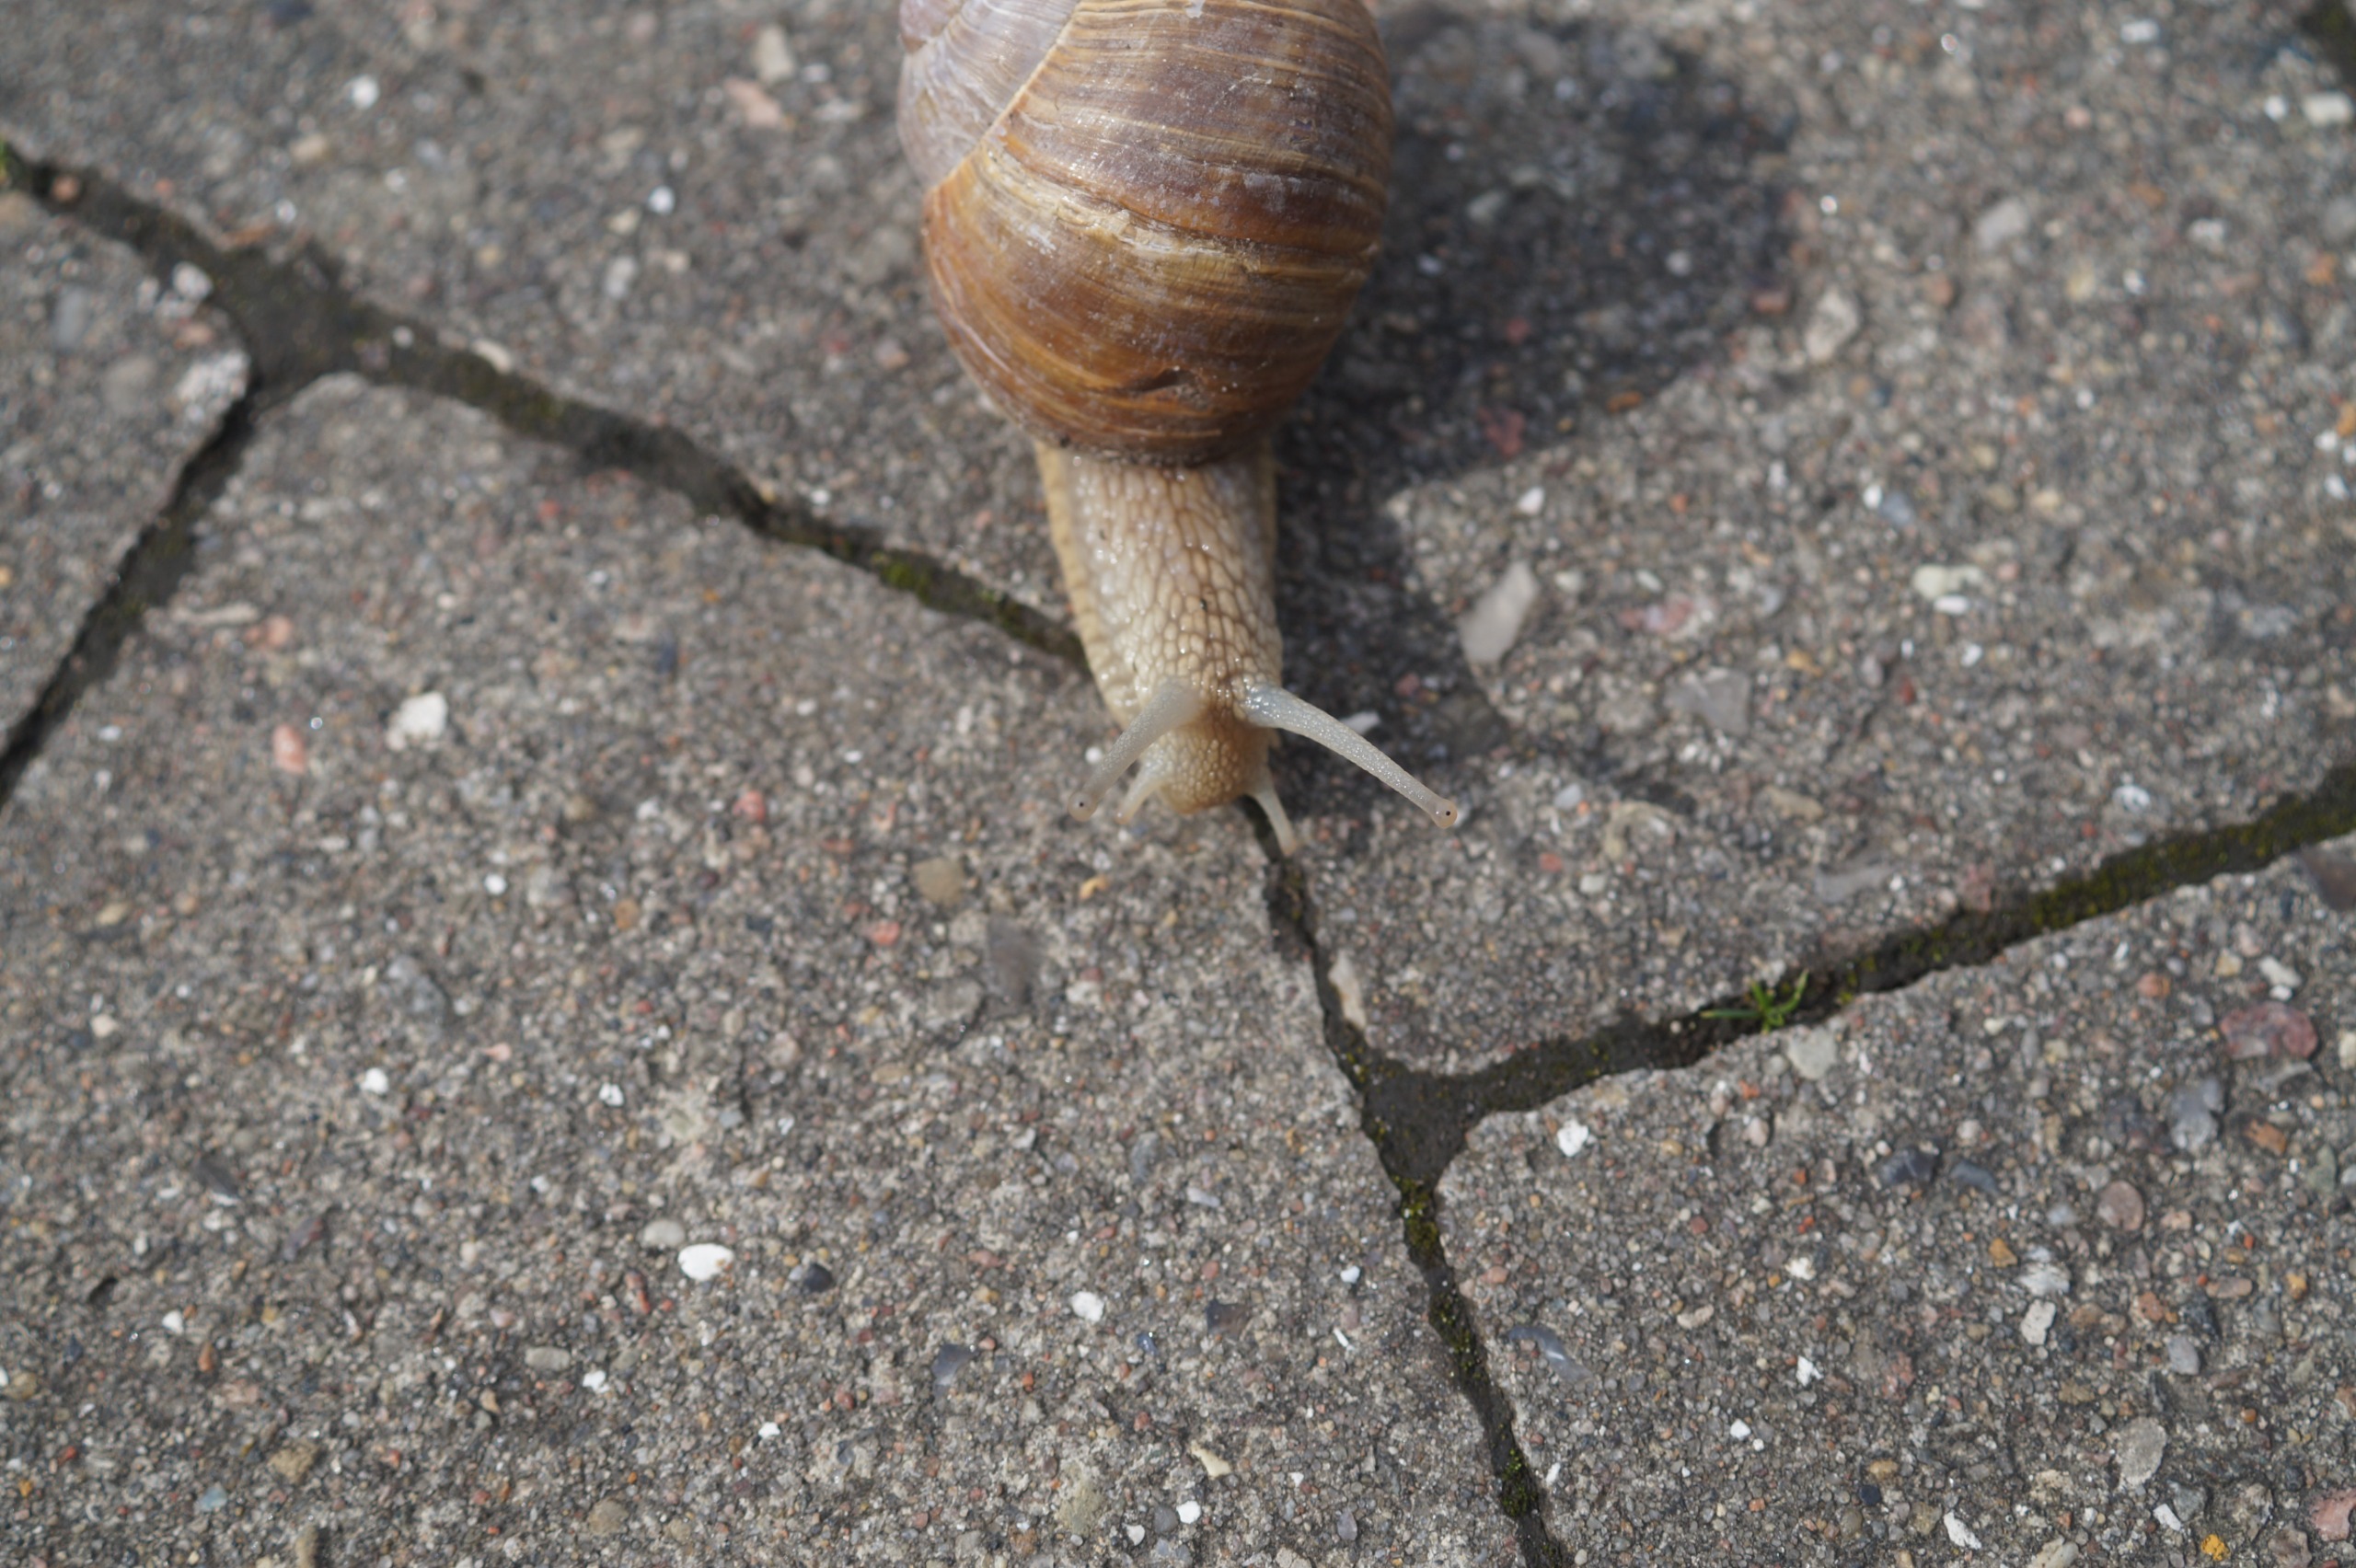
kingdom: Animalia
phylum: Mollusca
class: Gastropoda
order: Stylommatophora
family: Helicidae
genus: Helix
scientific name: Helix pomatia
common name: Vinbjergsnegl
